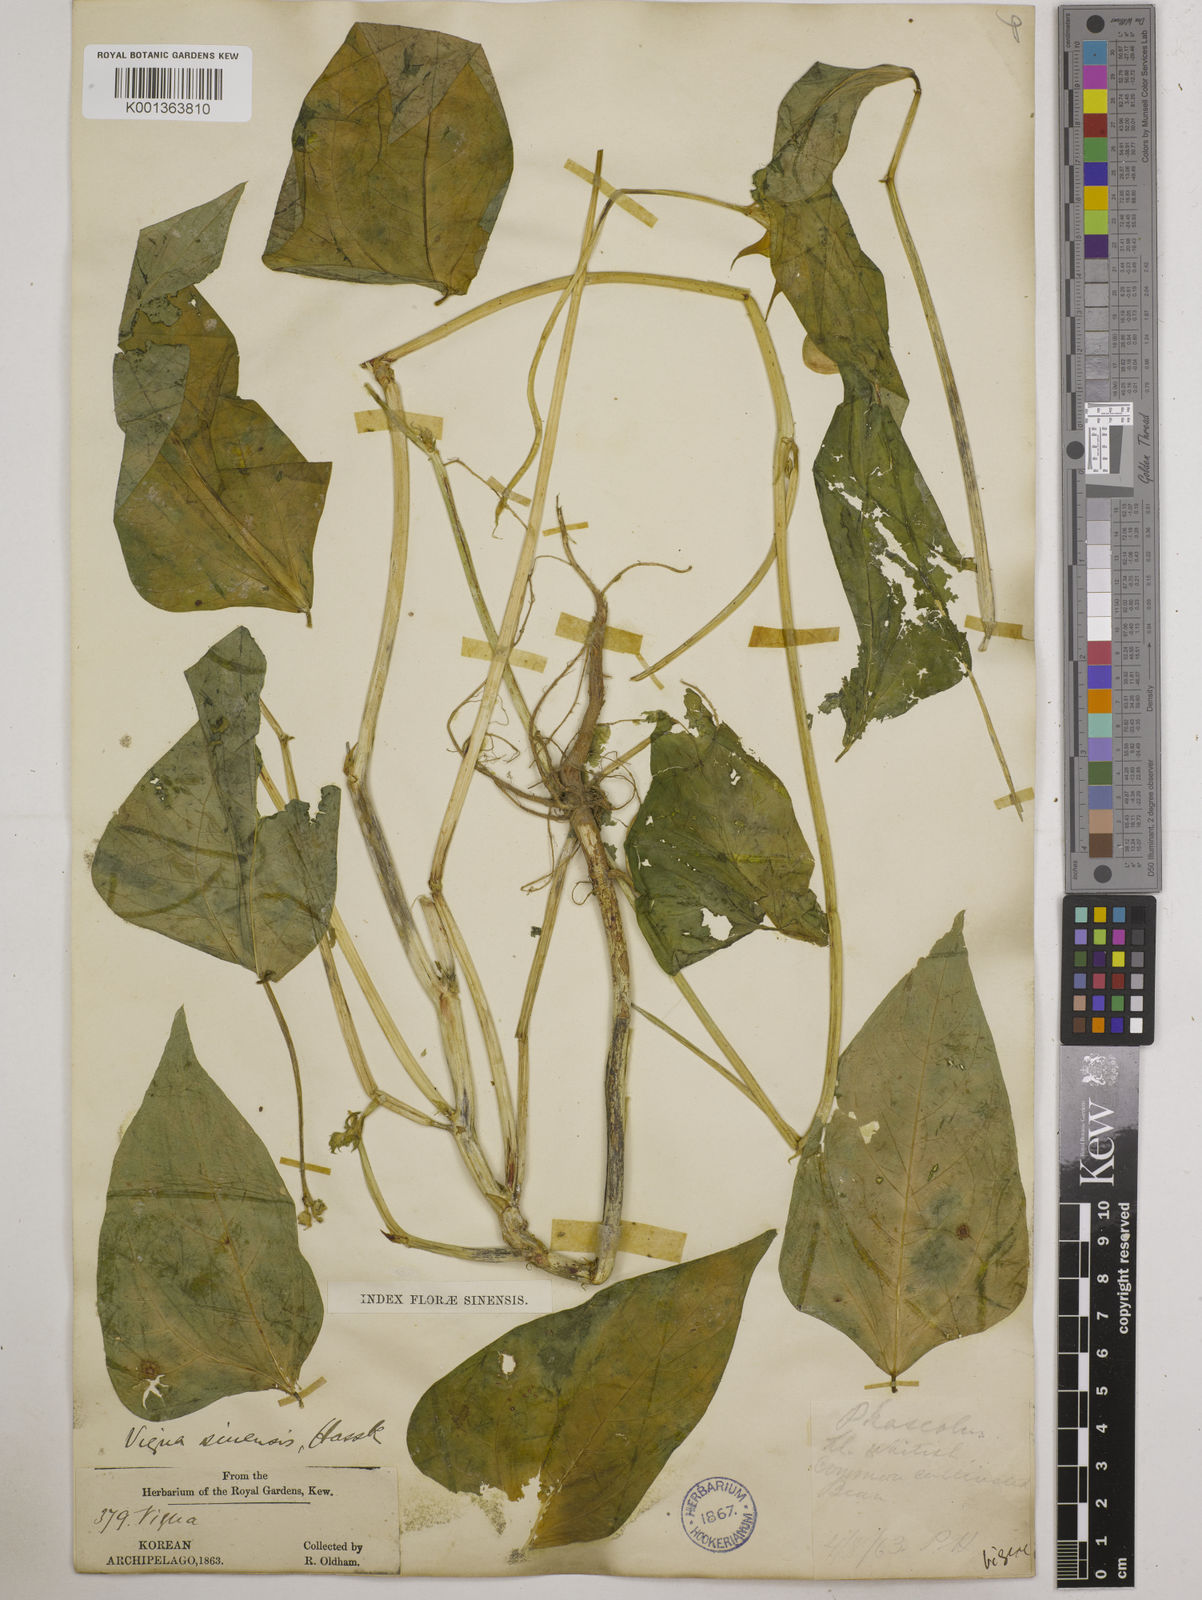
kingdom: Plantae
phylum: Tracheophyta
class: Magnoliopsida
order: Fabales
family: Fabaceae
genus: Vigna
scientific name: Vigna
